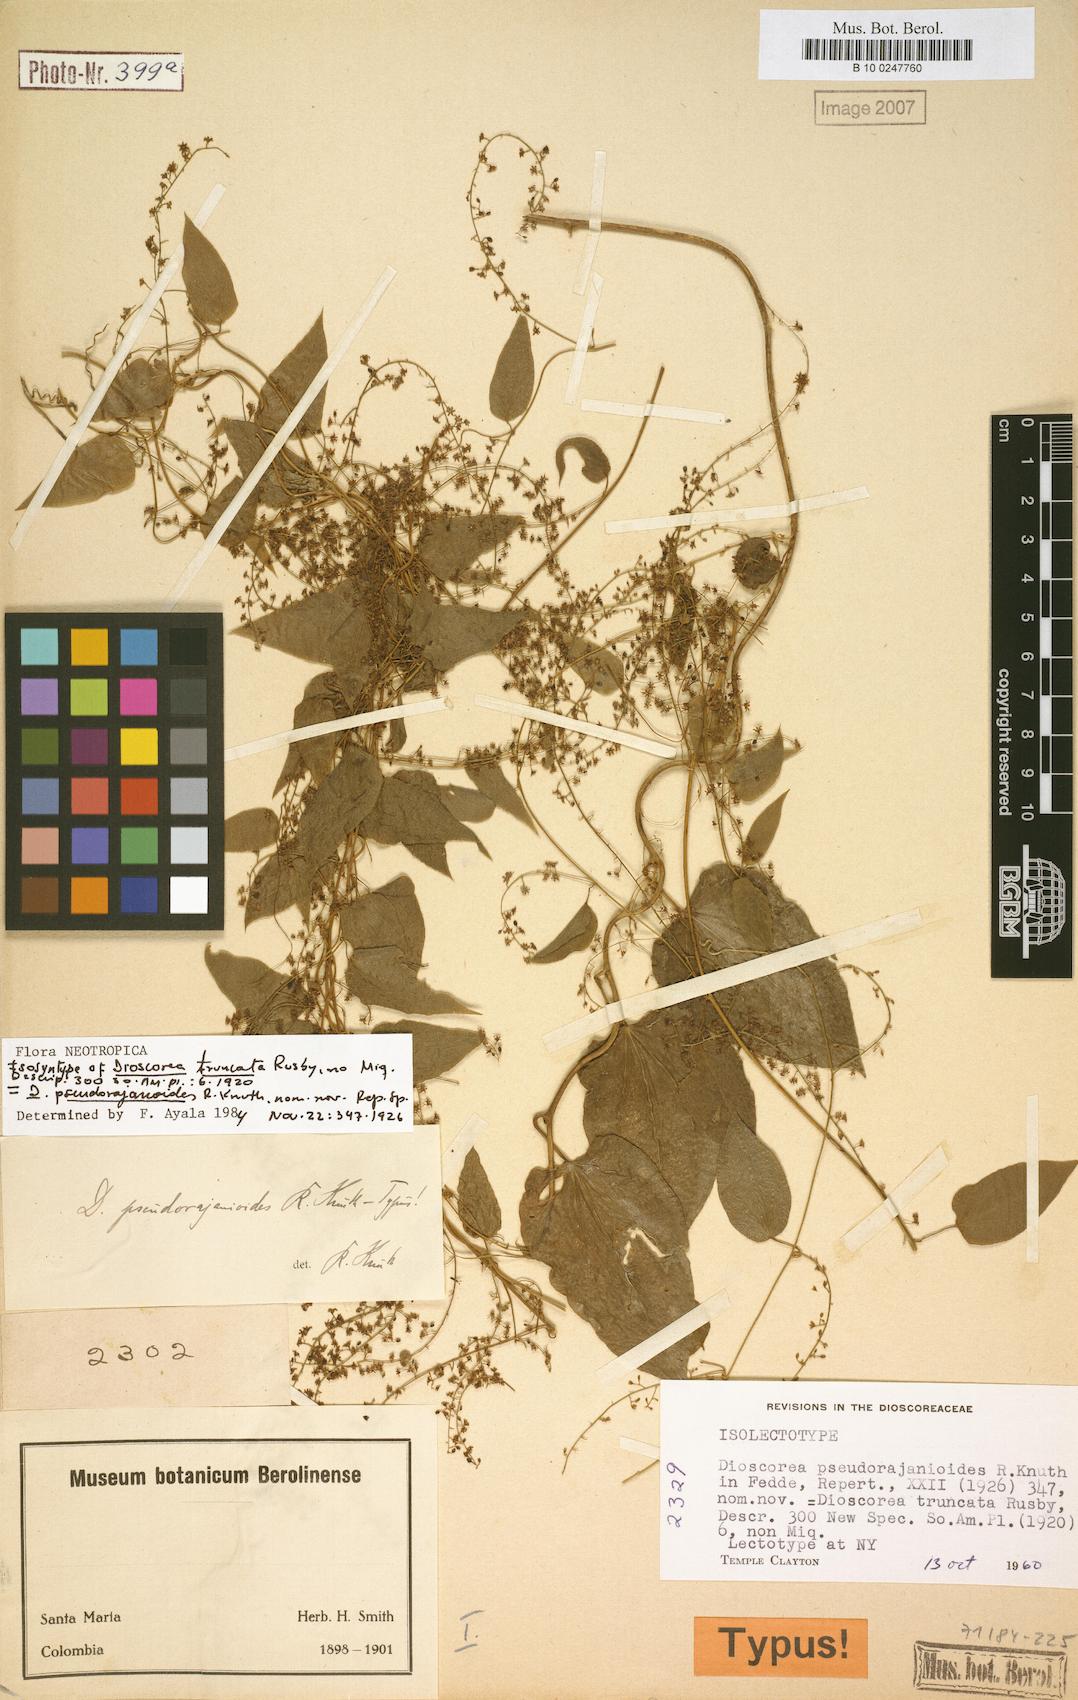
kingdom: Plantae
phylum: Tracheophyta
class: Liliopsida
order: Dioscoreales
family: Dioscoreaceae
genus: Dioscorea
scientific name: Dioscorea pseudorajanioides
